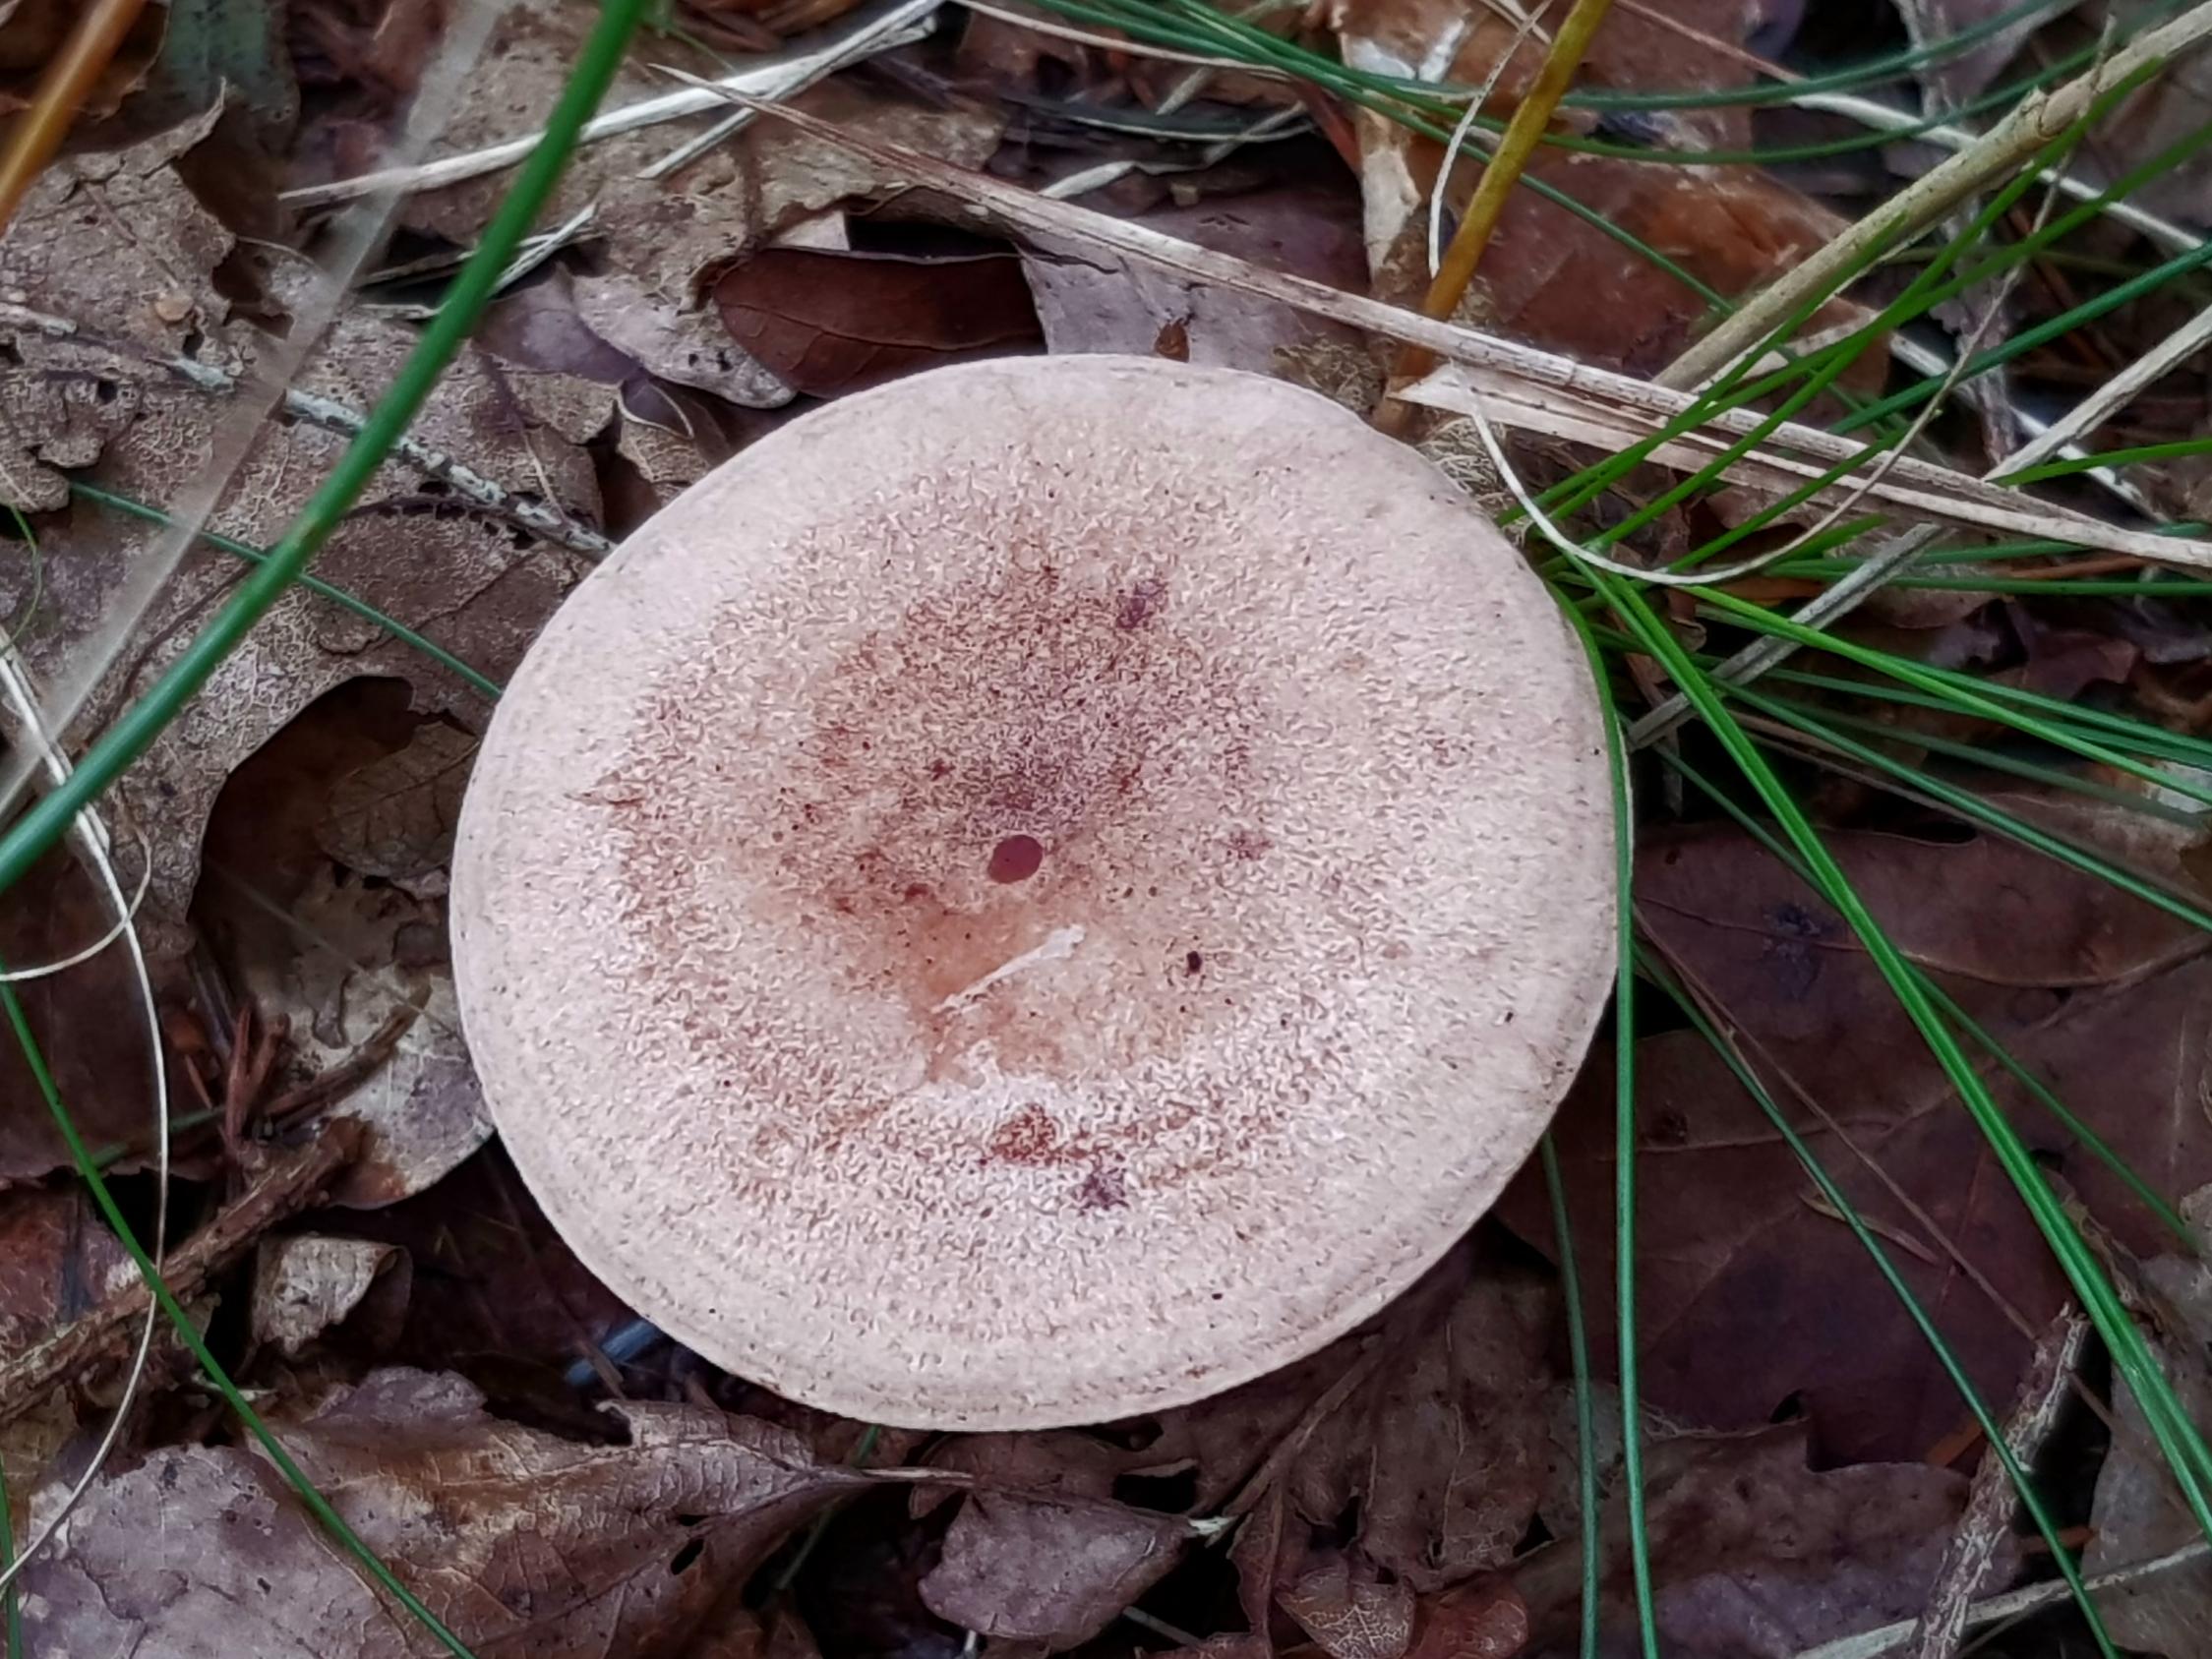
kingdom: Fungi
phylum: Basidiomycota
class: Agaricomycetes
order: Russulales
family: Russulaceae
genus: Lactarius
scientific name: Lactarius quietus
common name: ege-mælkehat
